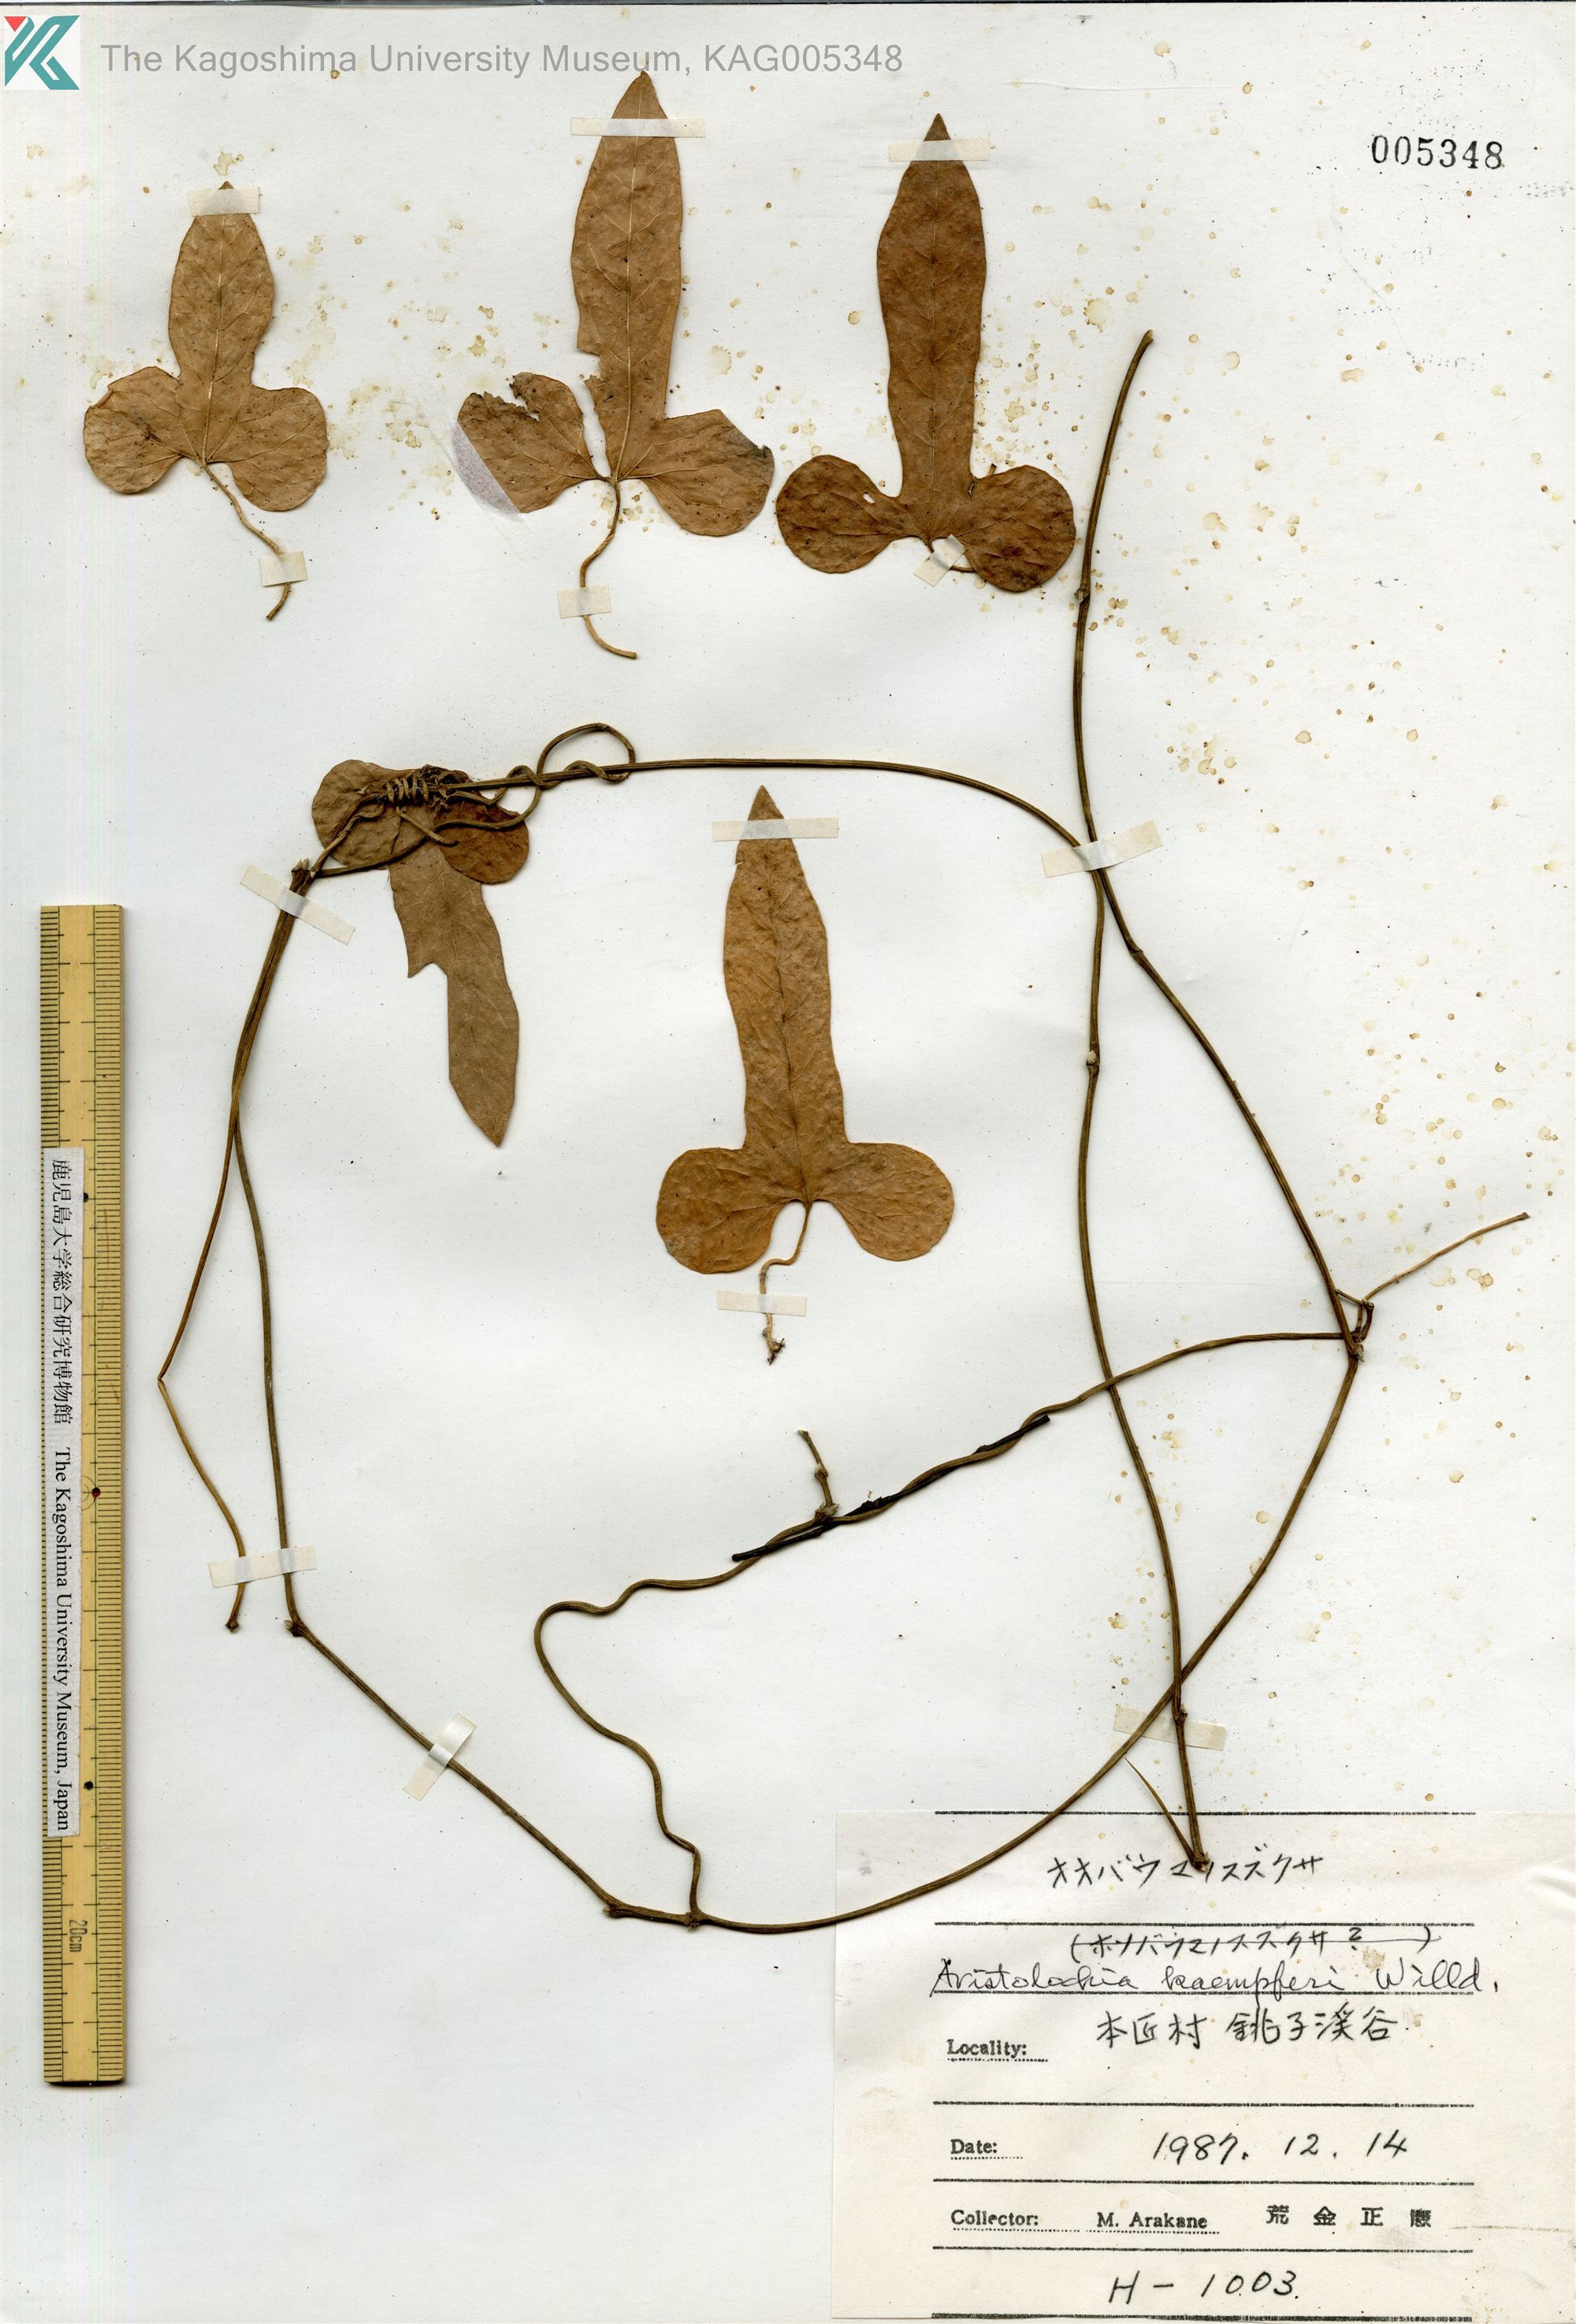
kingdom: Plantae
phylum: Tracheophyta
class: Magnoliopsida
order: Piperales
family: Aristolochiaceae
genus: Isotrema
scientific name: Isotrema kaempferi
